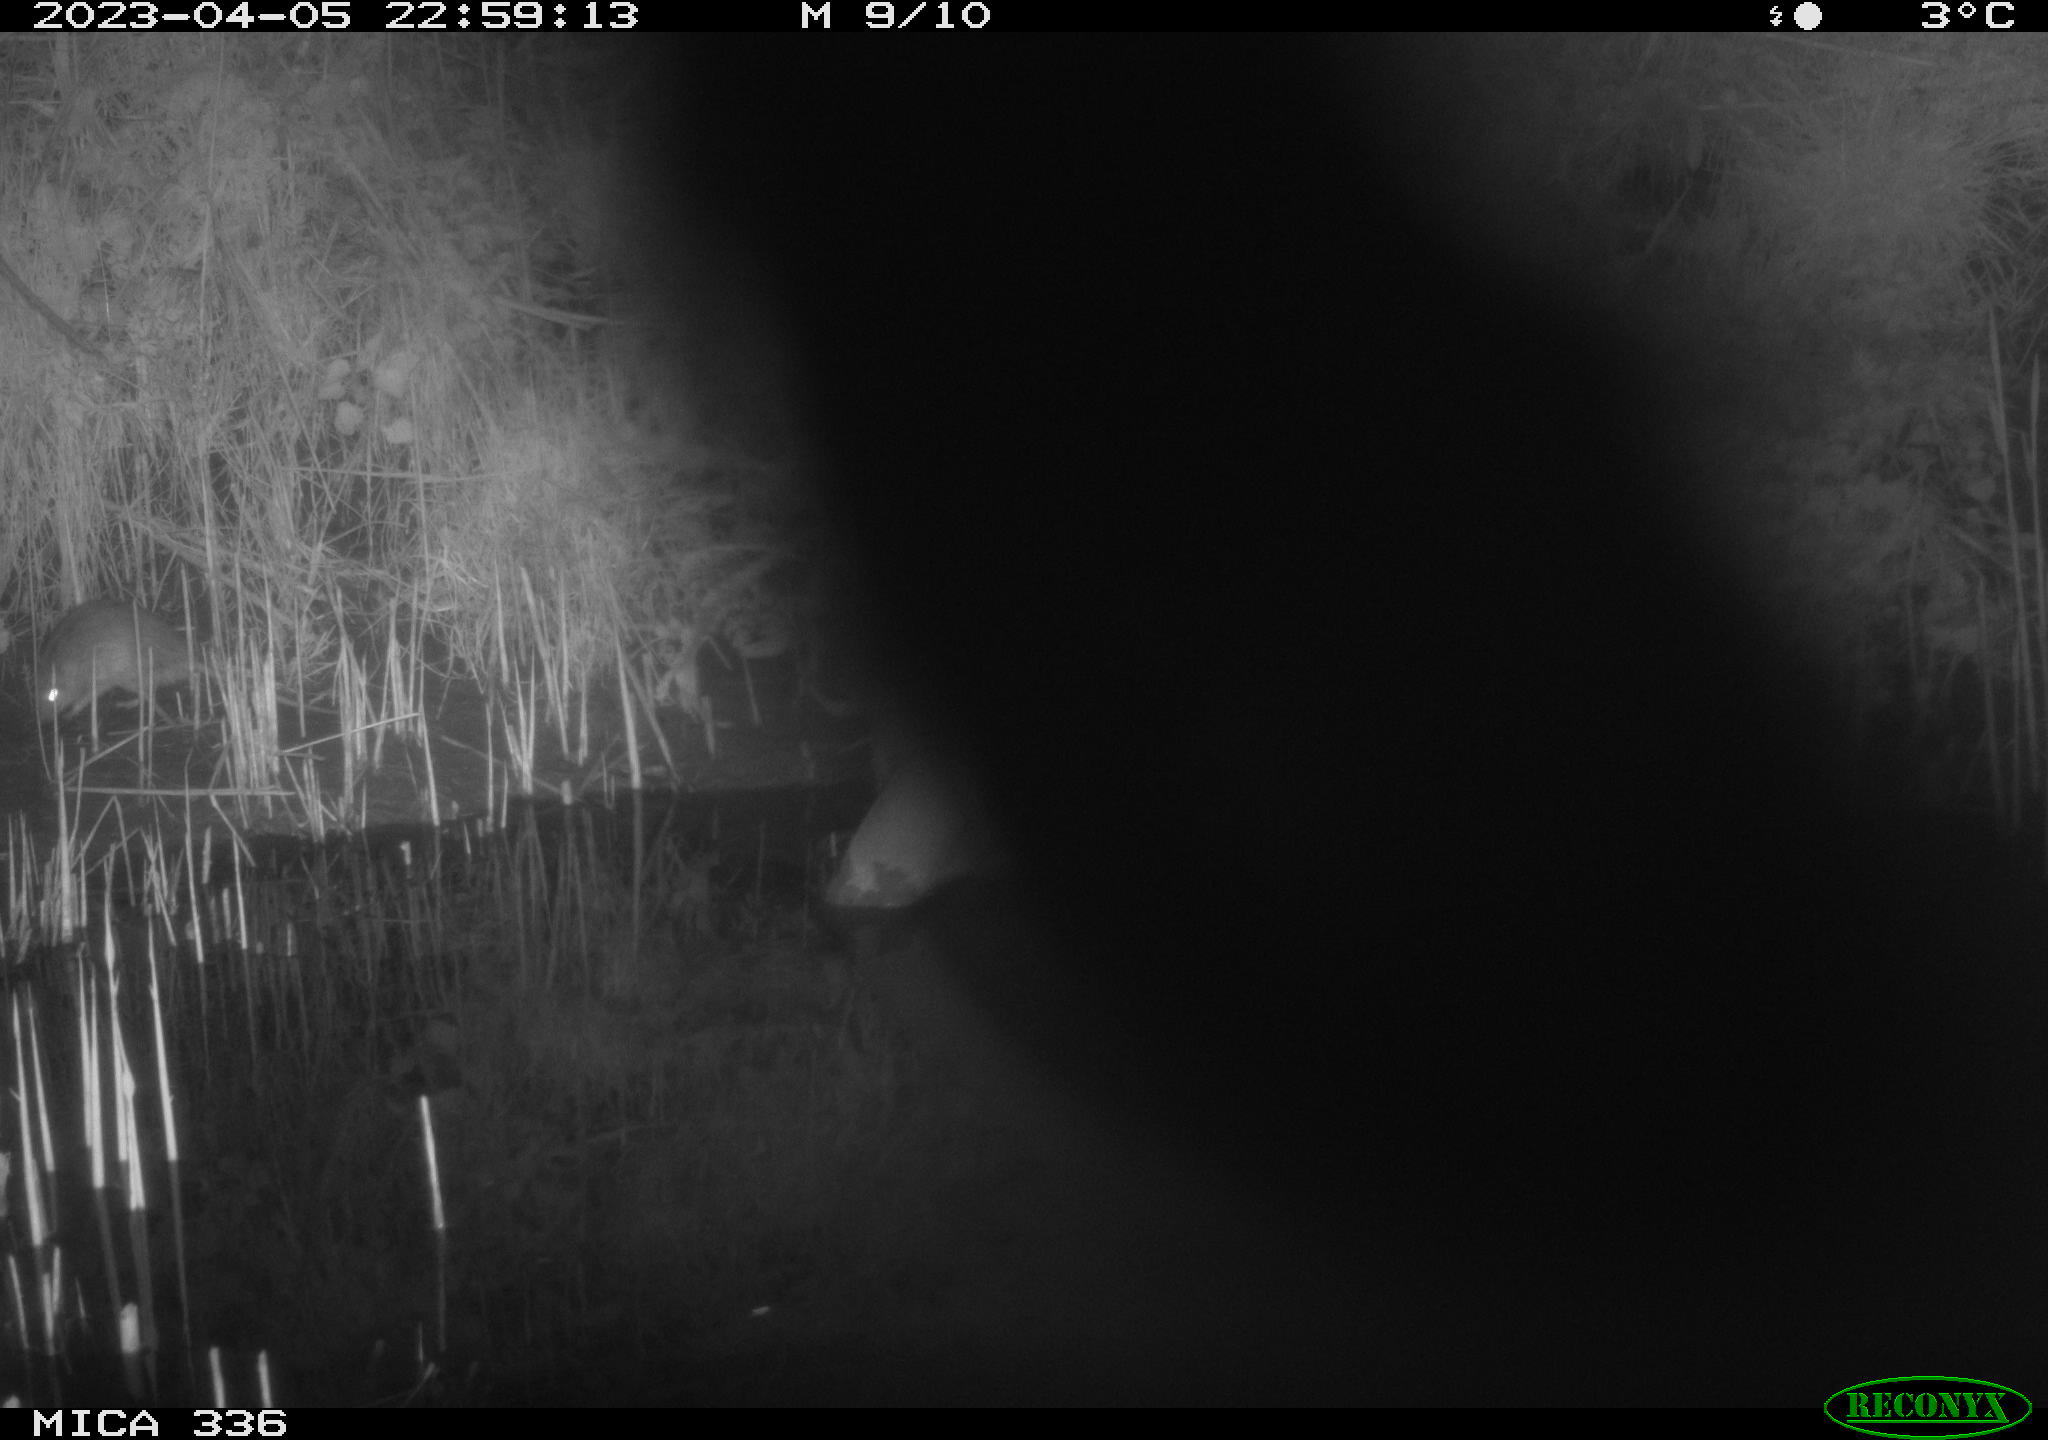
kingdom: Animalia
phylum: Chordata
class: Mammalia
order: Rodentia
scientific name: Rodentia
